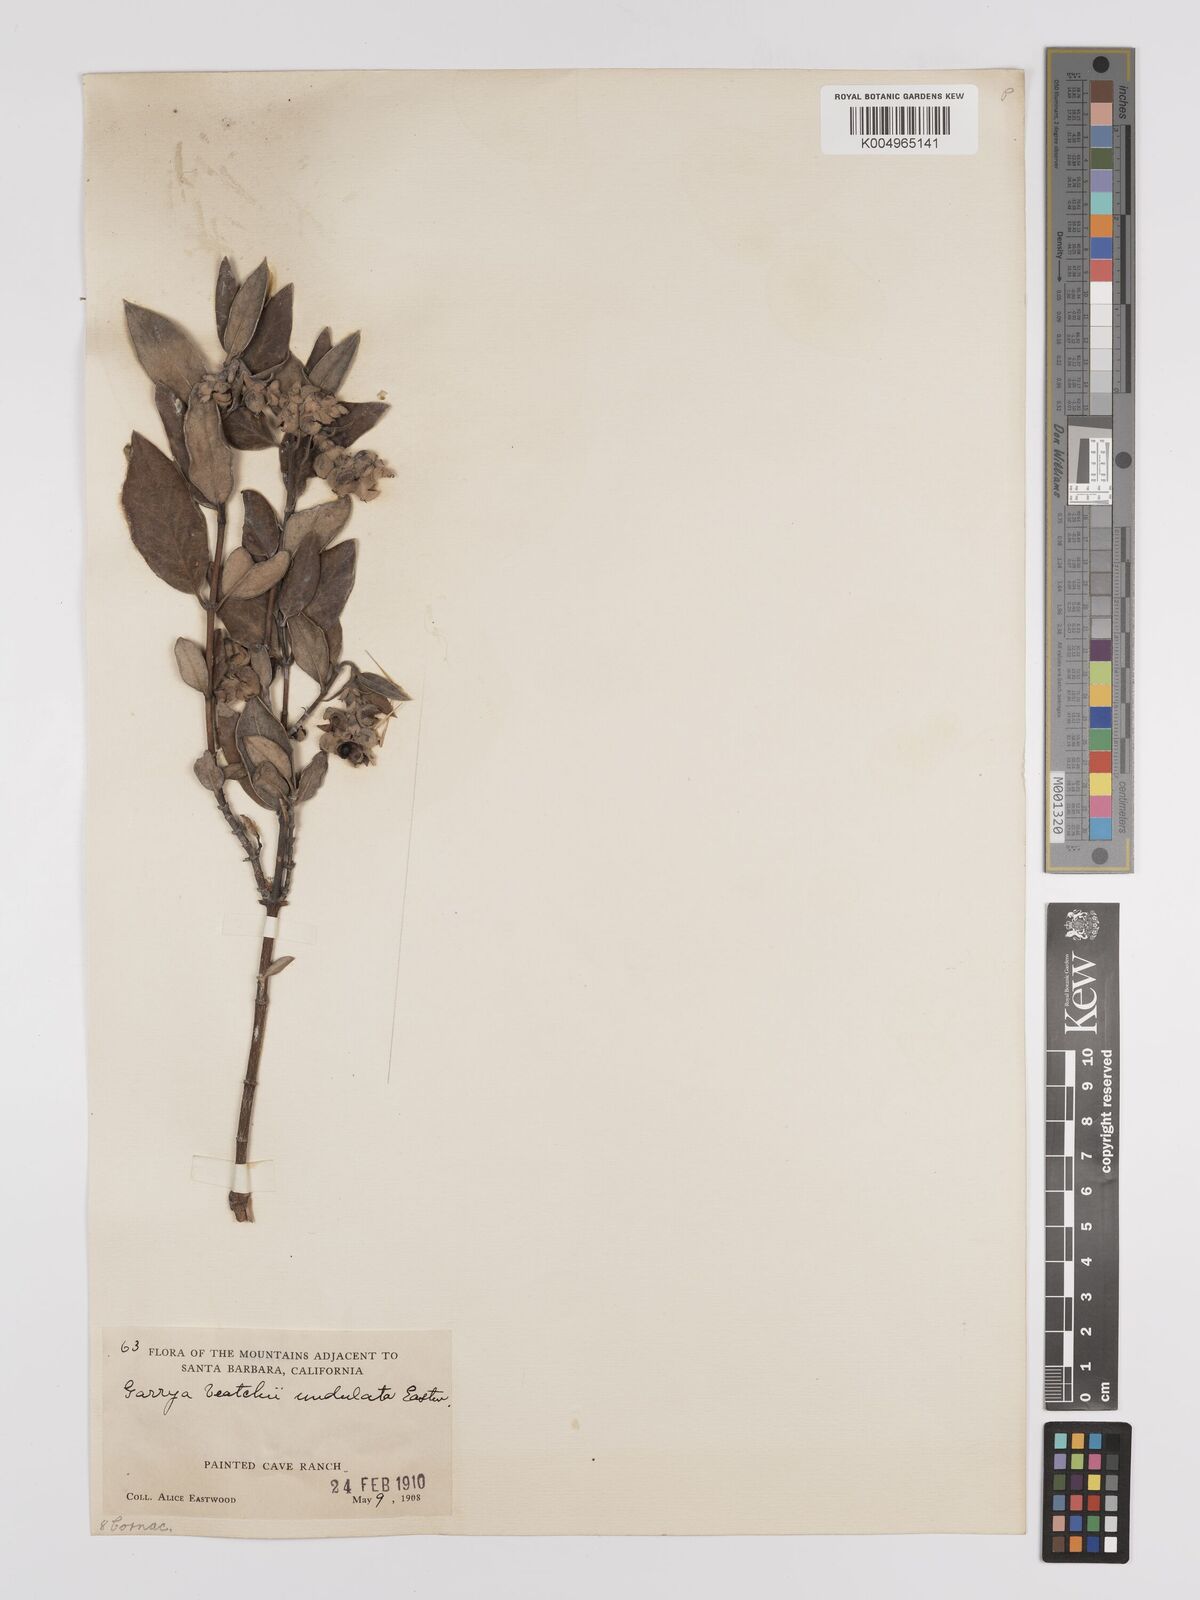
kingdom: Plantae
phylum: Tracheophyta
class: Magnoliopsida
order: Garryales
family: Garryaceae
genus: Garrya
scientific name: Garrya veatchii
